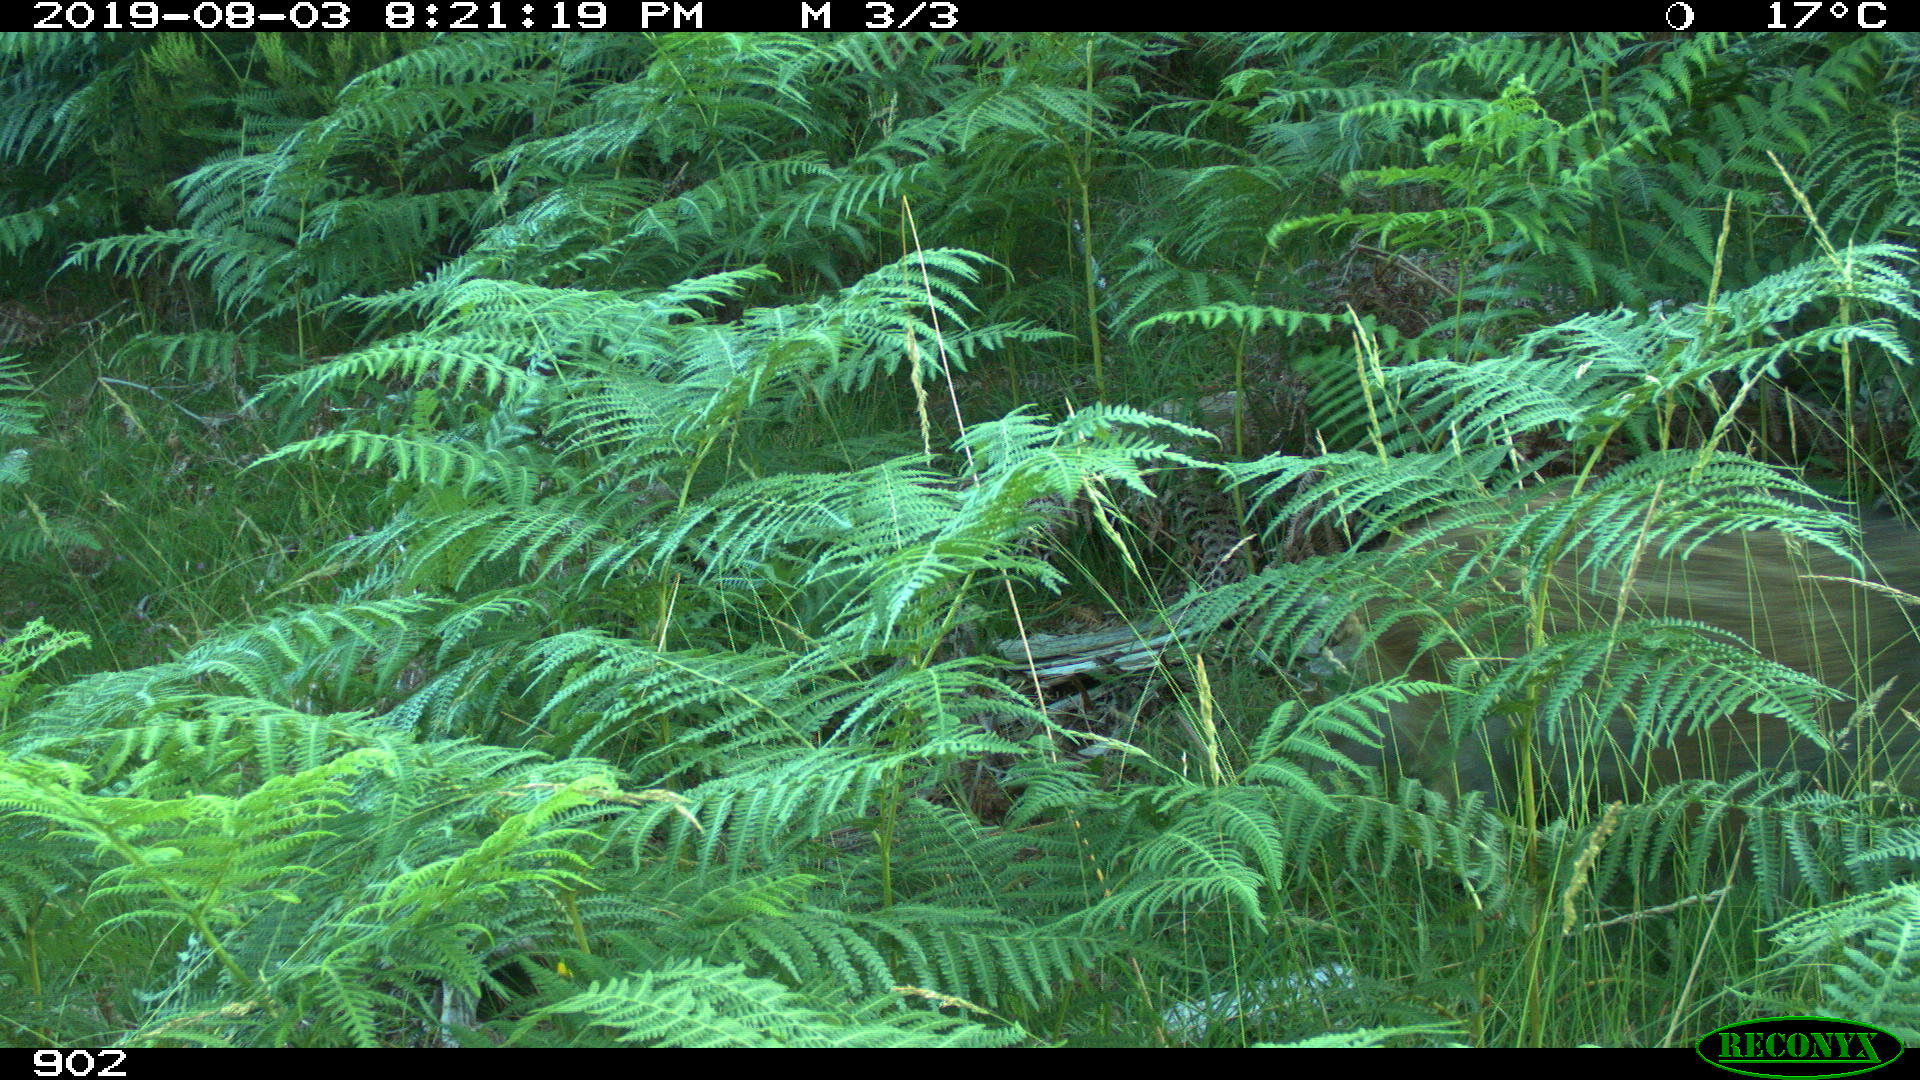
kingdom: Animalia
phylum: Chordata
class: Mammalia
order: Artiodactyla
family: Suidae
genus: Sus
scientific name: Sus scrofa
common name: Wild boar
